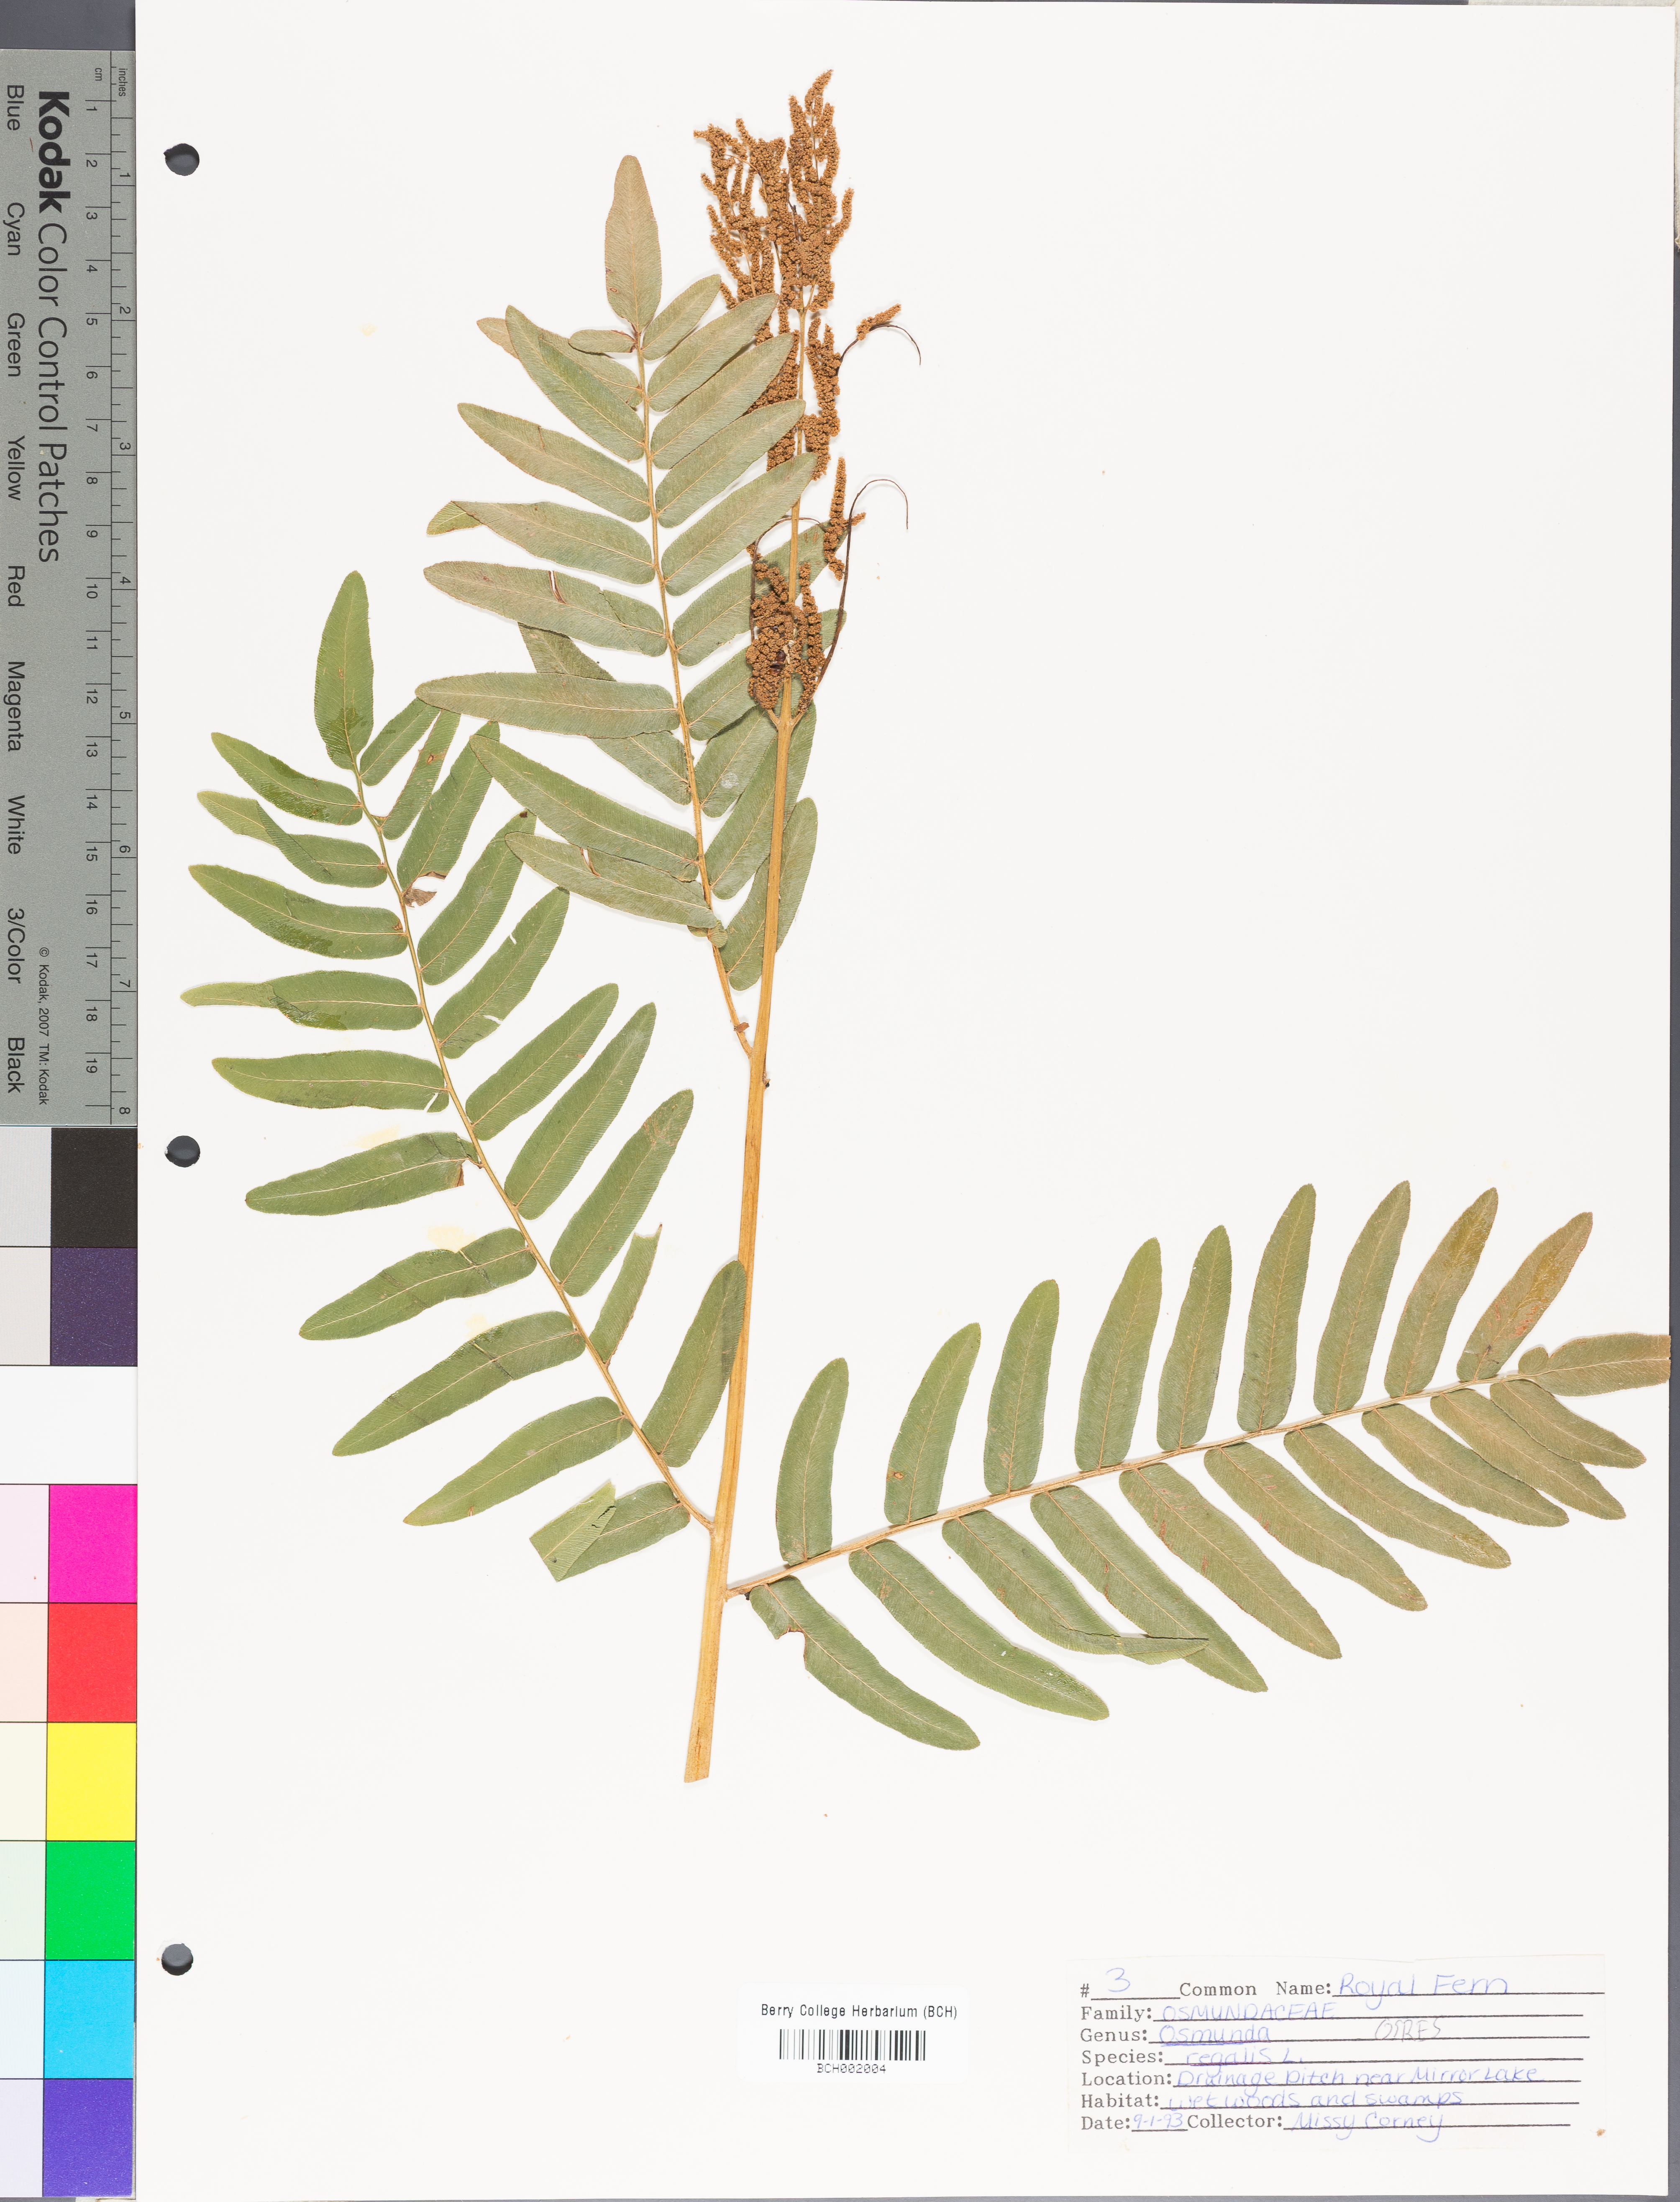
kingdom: Plantae
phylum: Tracheophyta
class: Polypodiopsida
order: Osmundales
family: Osmundaceae
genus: Osmunda
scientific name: Osmunda spectabilis
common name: American royal fern
